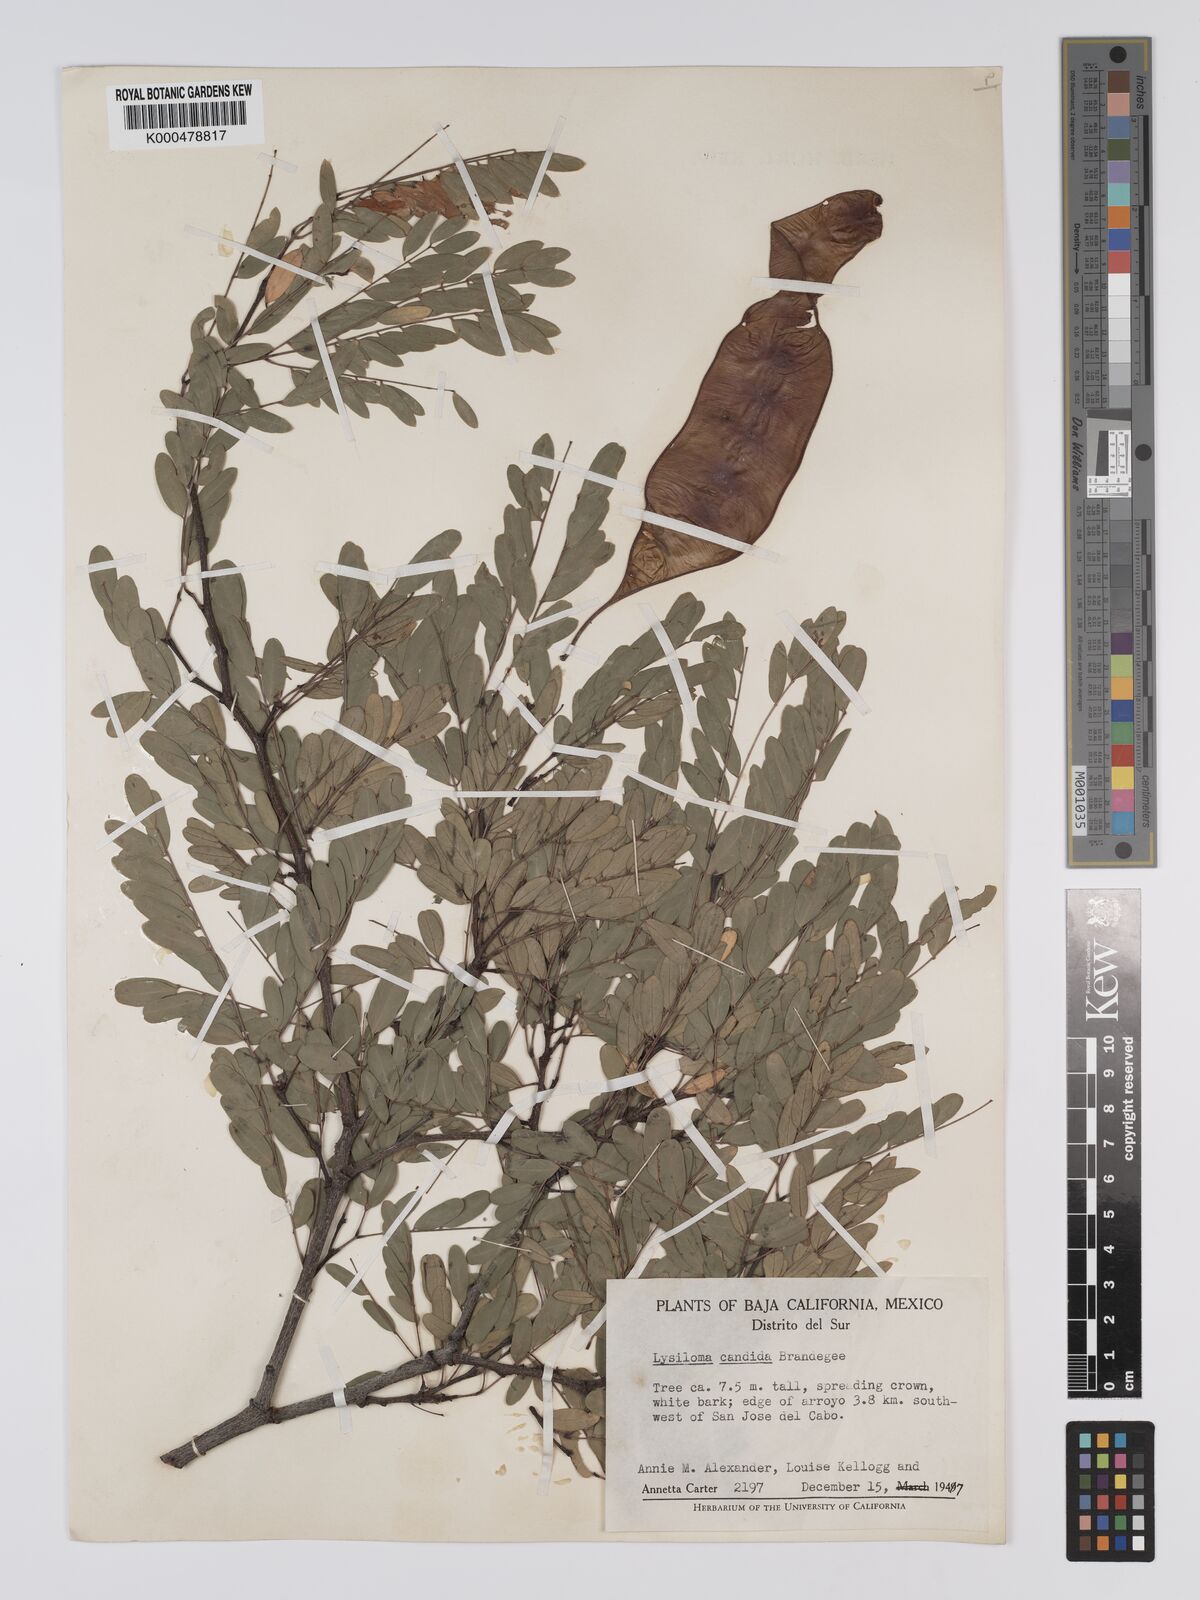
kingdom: Plantae
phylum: Tracheophyta
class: Magnoliopsida
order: Fabales
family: Fabaceae
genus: Lysiloma
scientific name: Lysiloma candidum
